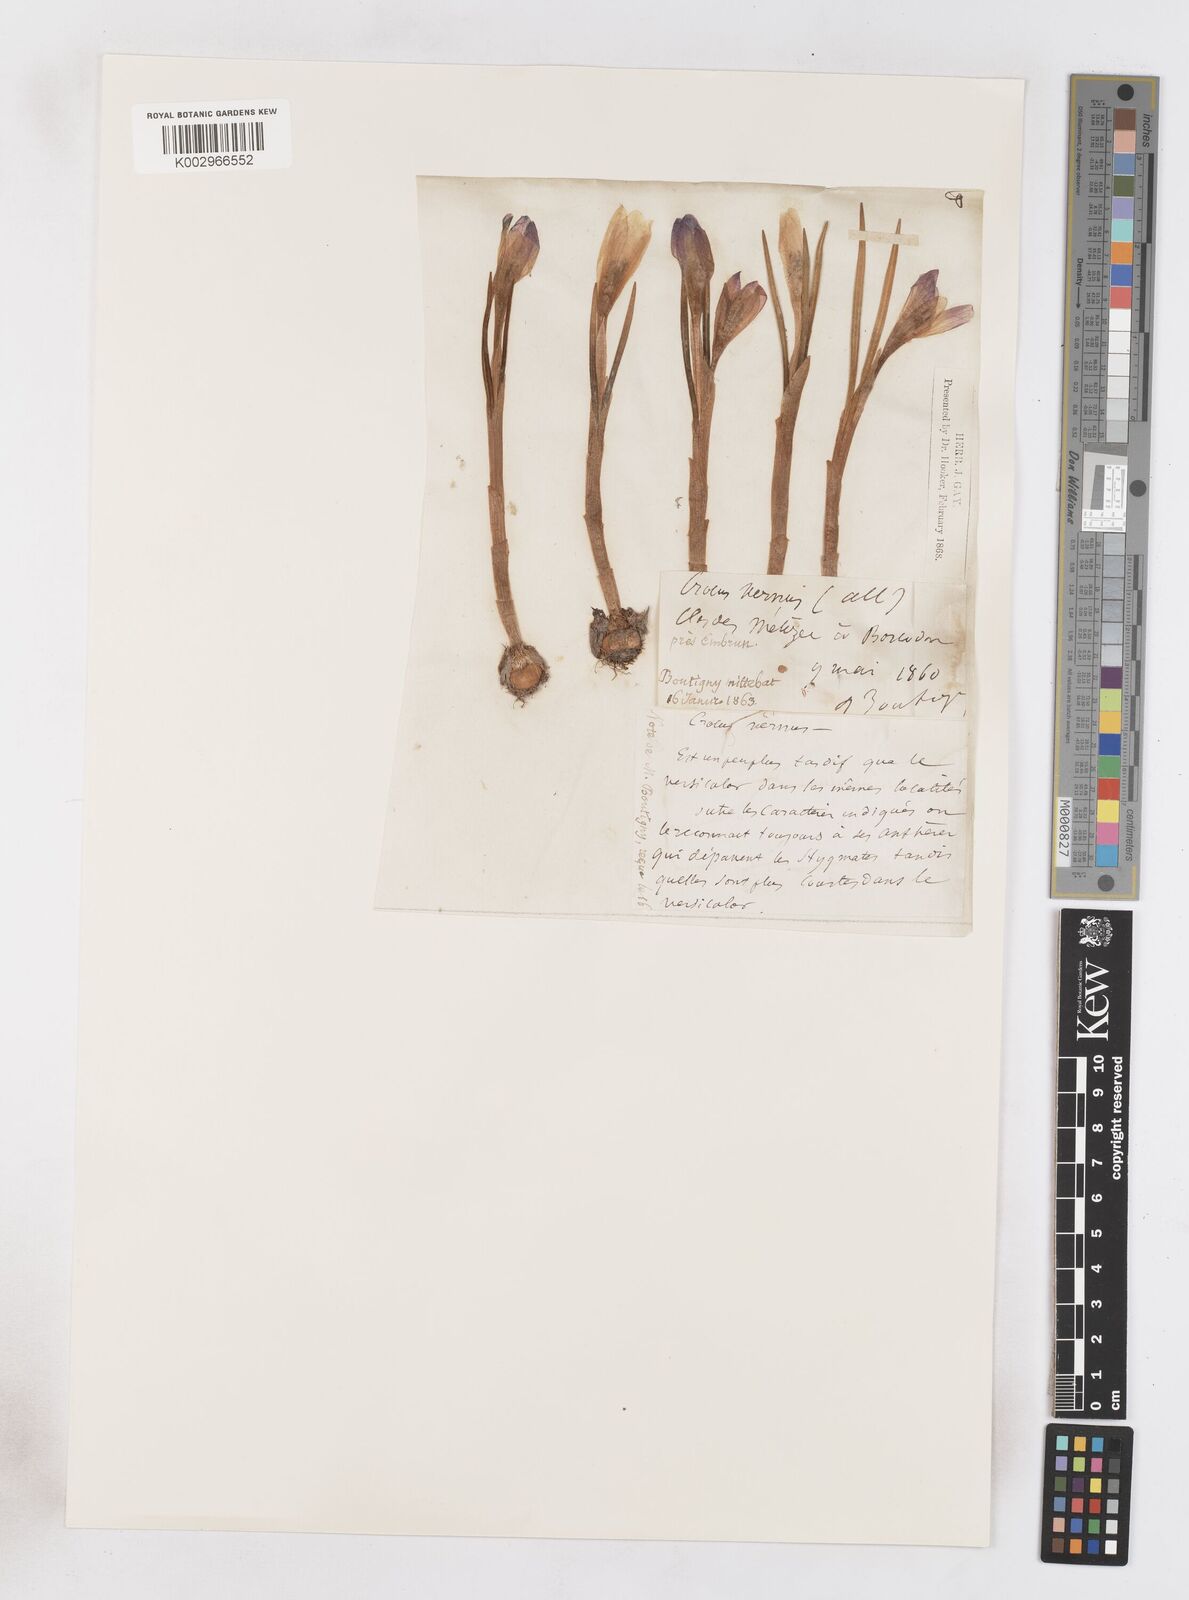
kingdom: Plantae
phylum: Tracheophyta
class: Liliopsida
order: Asparagales
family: Iridaceae
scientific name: Iridaceae
